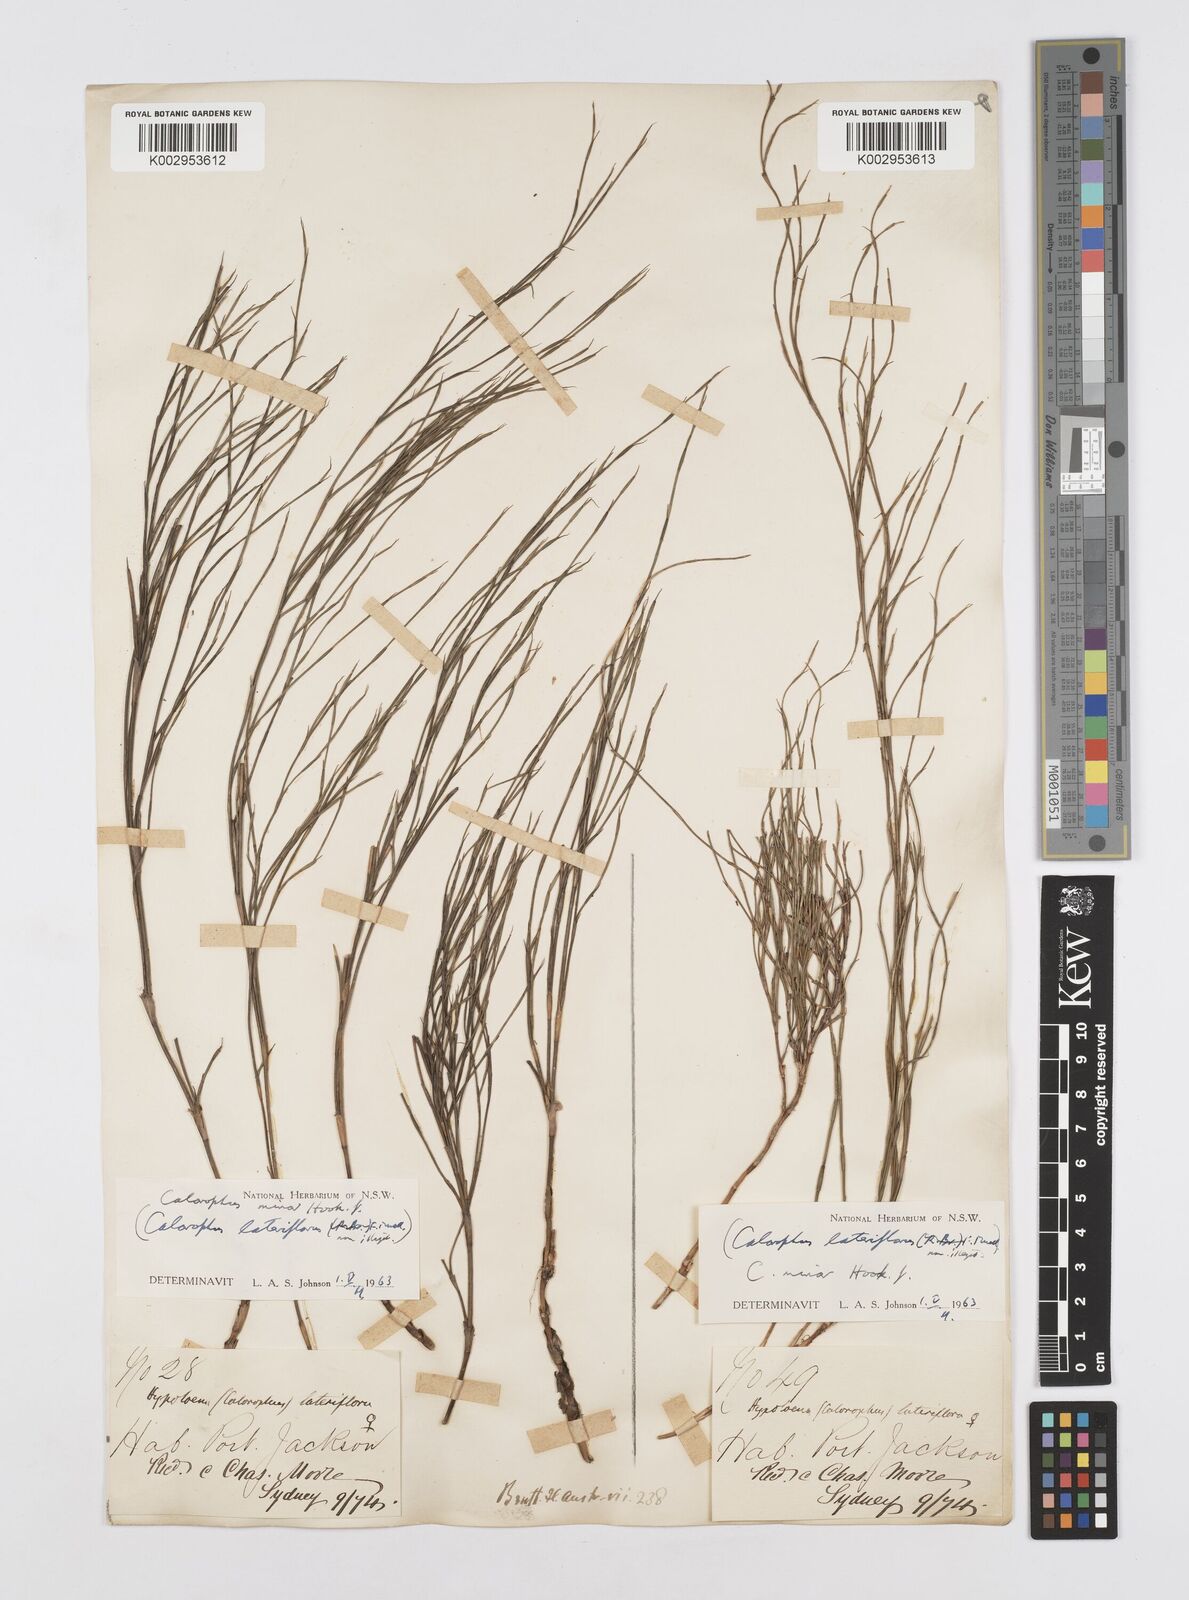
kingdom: Plantae
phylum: Tracheophyta
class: Liliopsida
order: Poales
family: Restionaceae
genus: Empodisma
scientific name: Empodisma minus
